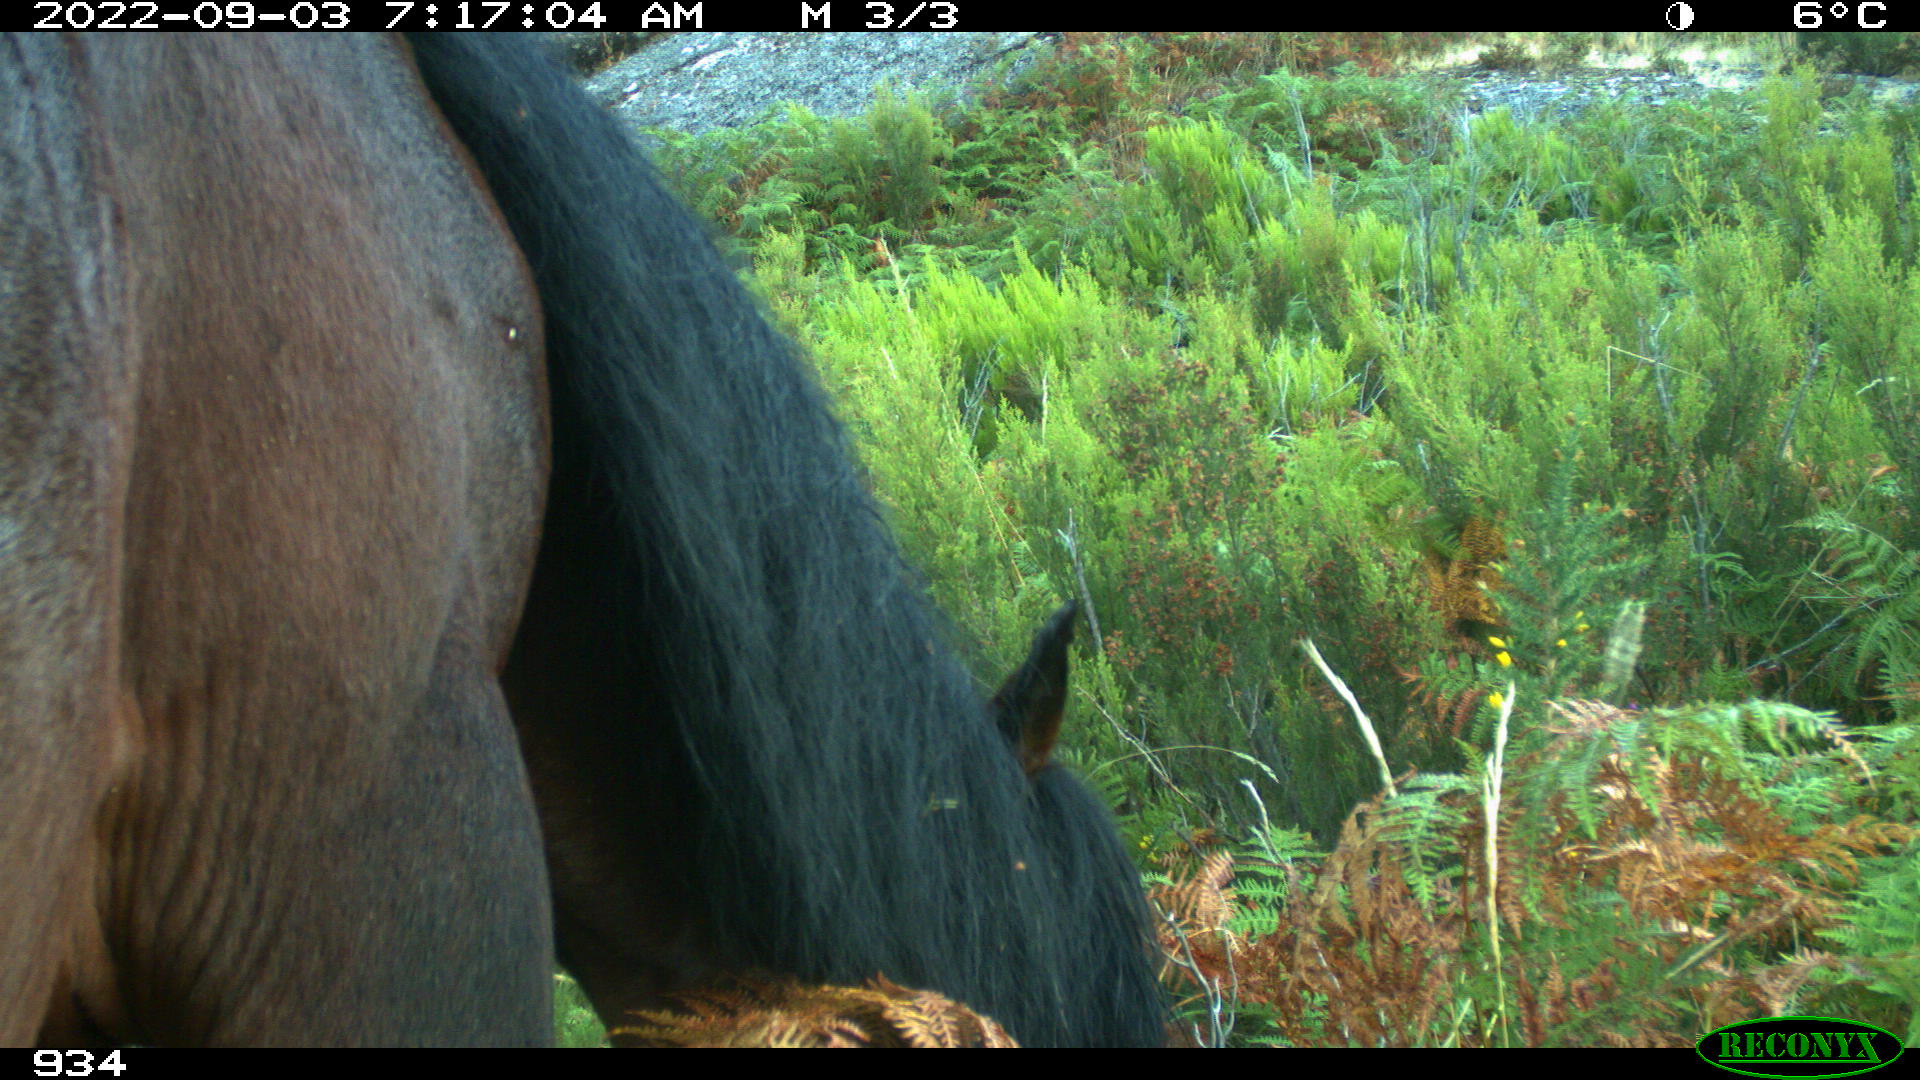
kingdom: Animalia
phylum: Chordata
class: Mammalia
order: Perissodactyla
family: Equidae
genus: Equus
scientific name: Equus caballus
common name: Horse
